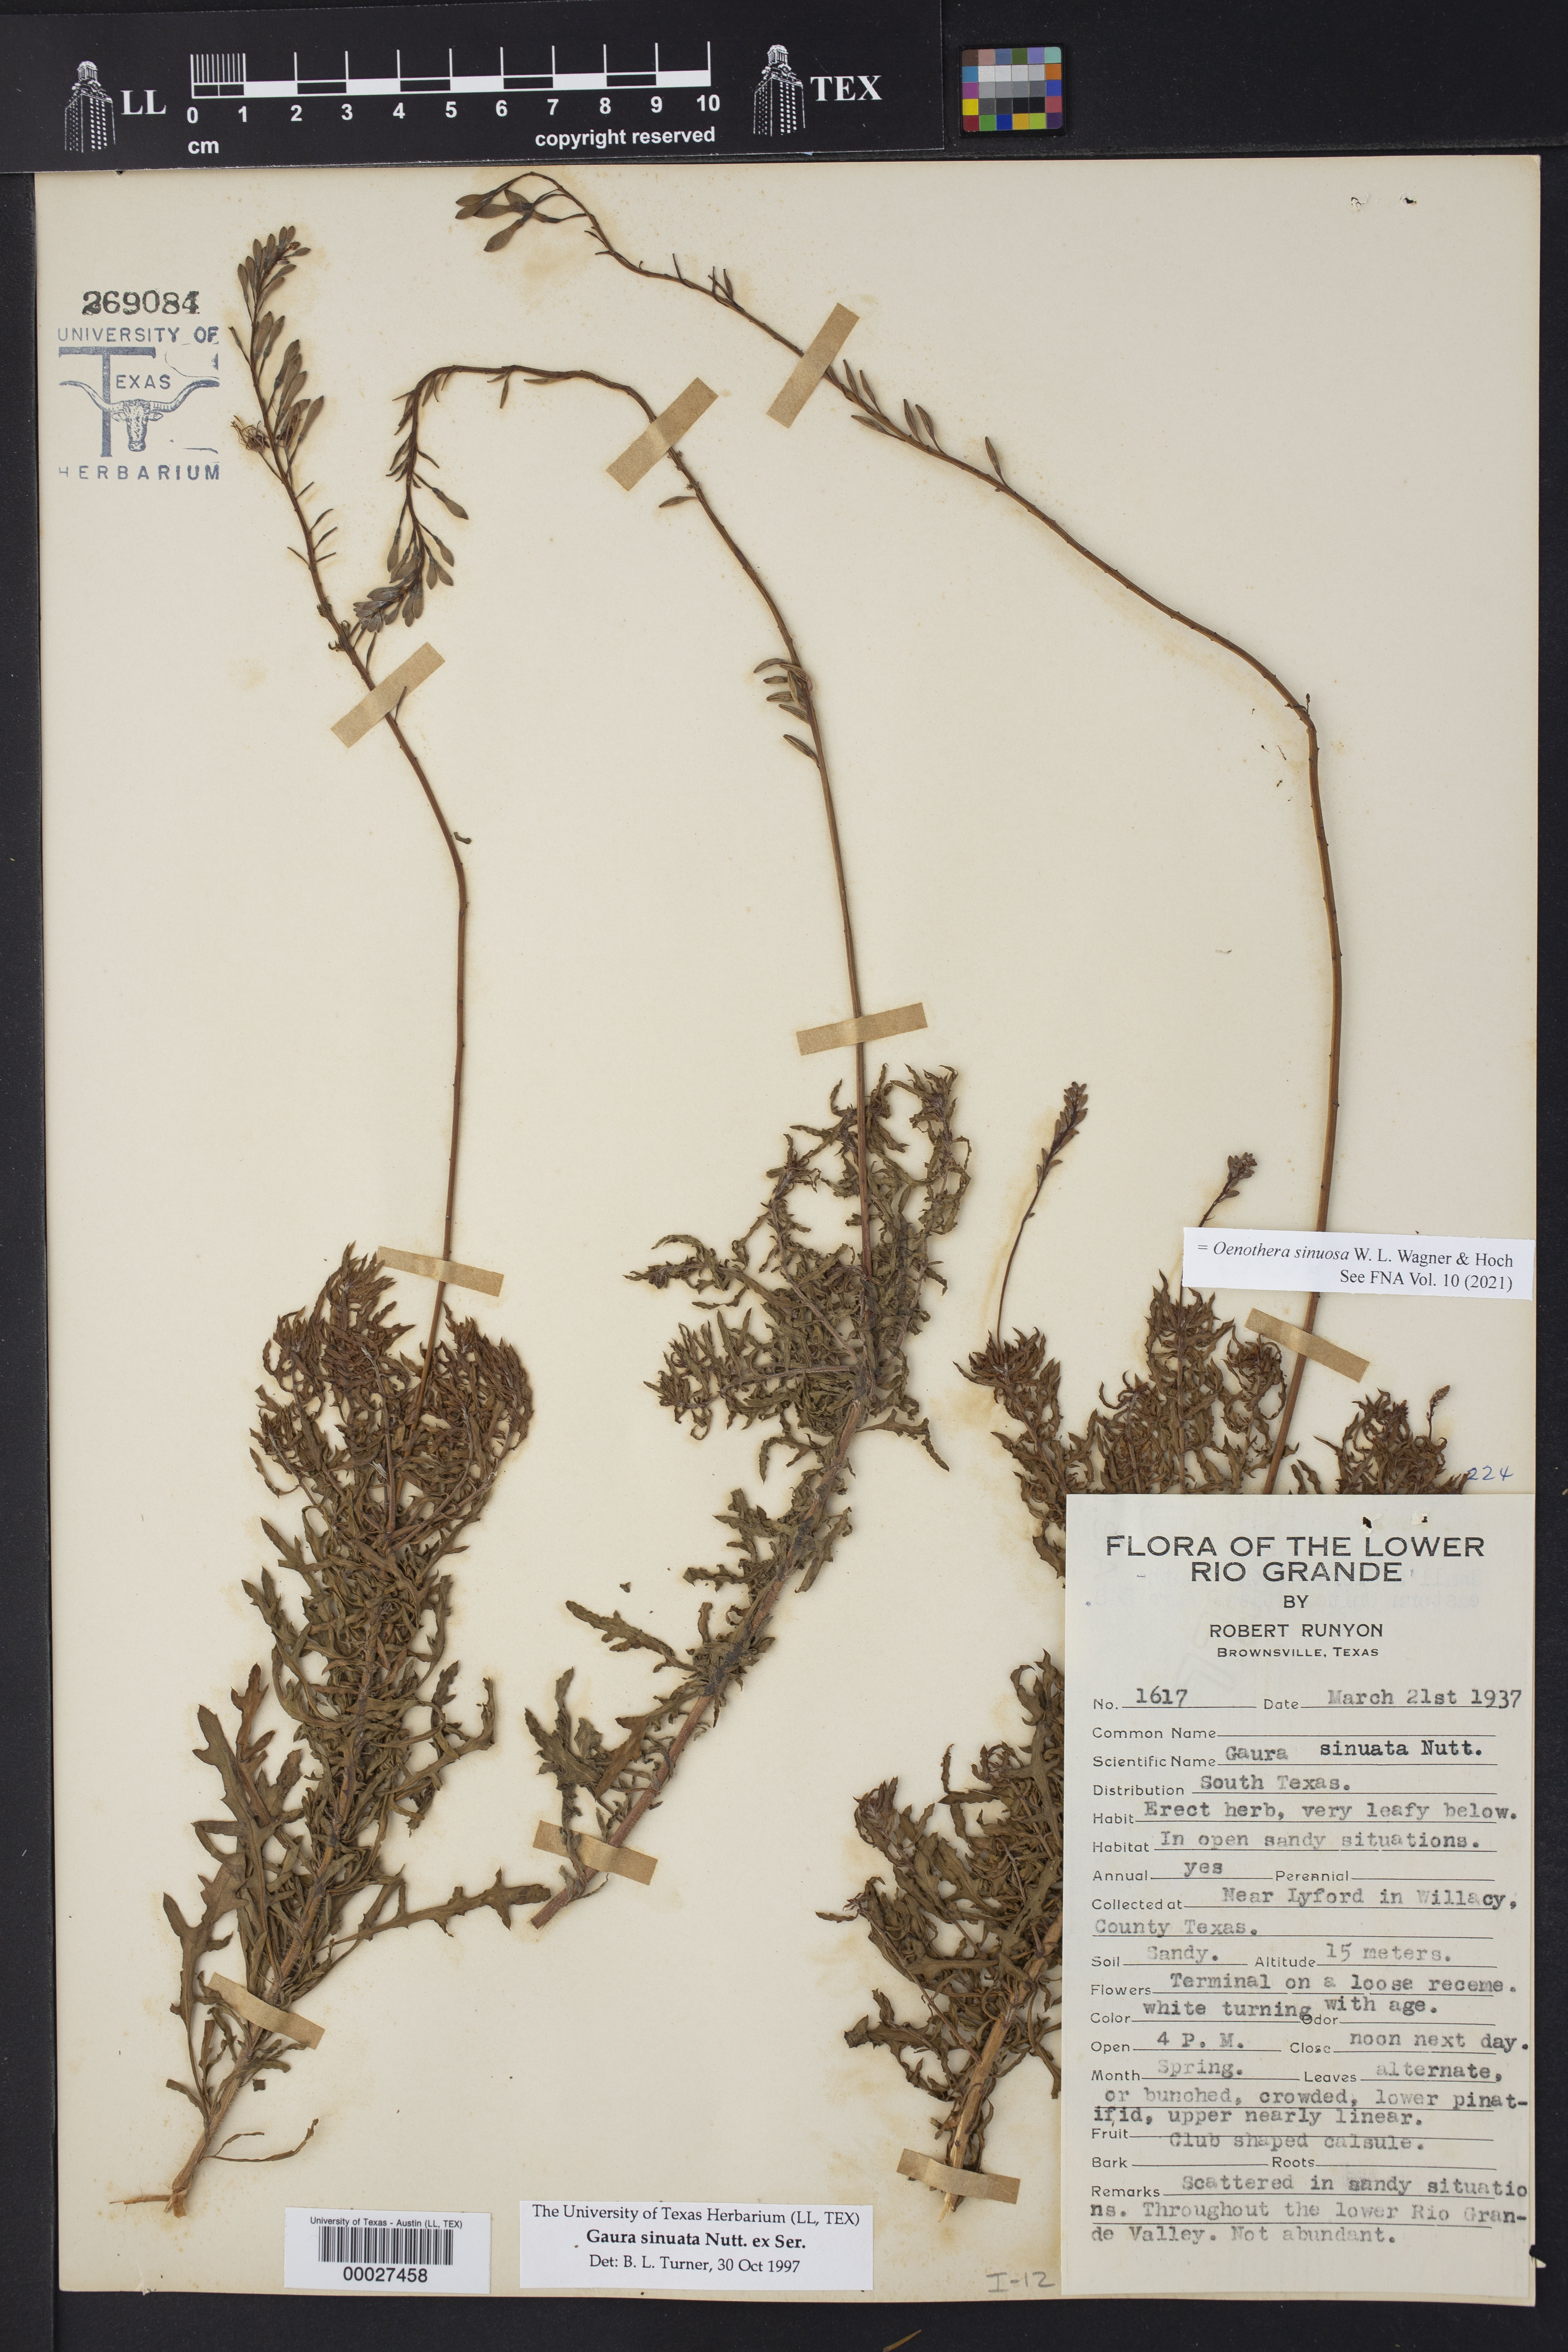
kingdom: Plantae
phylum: Tracheophyta
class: Magnoliopsida
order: Myrtales
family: Onagraceae
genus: Oenothera
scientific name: Oenothera sinuosa
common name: Wavyleaf beeblossom
